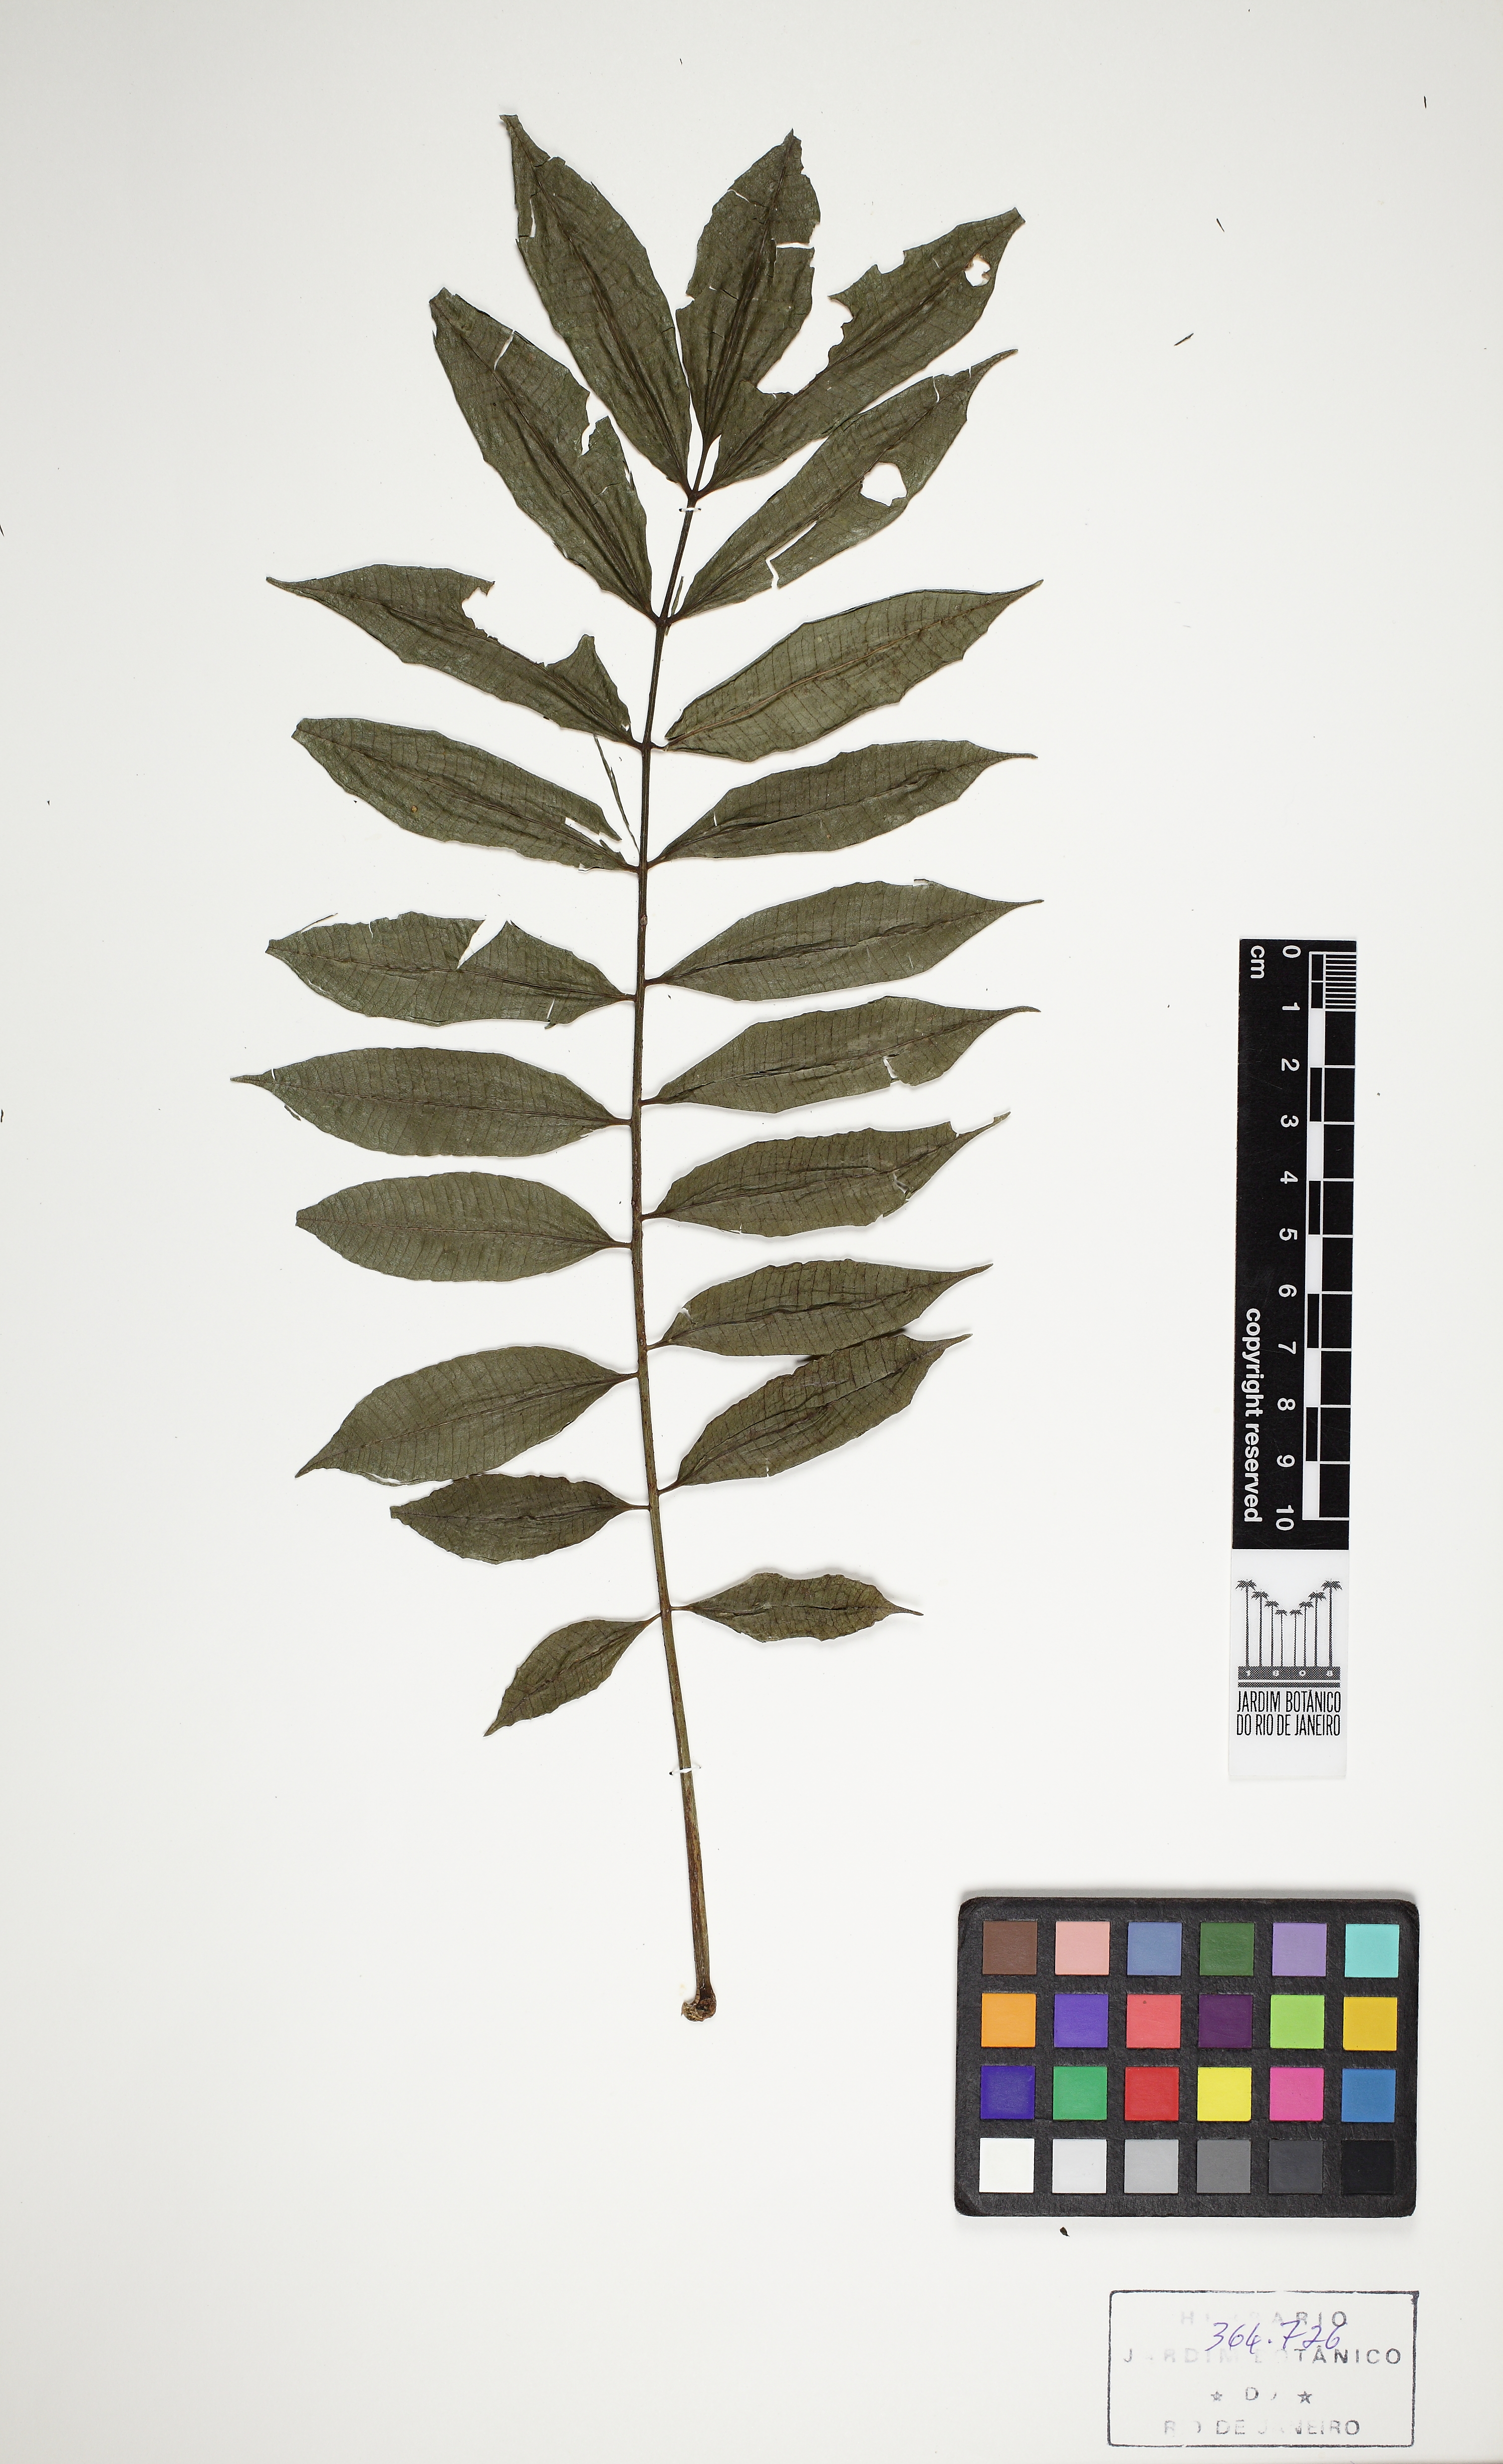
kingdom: Plantae
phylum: Tracheophyta
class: Magnoliopsida
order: Sapindales
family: Anacardiaceae
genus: Spondias
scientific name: Spondias dulcis
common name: Ambarella
